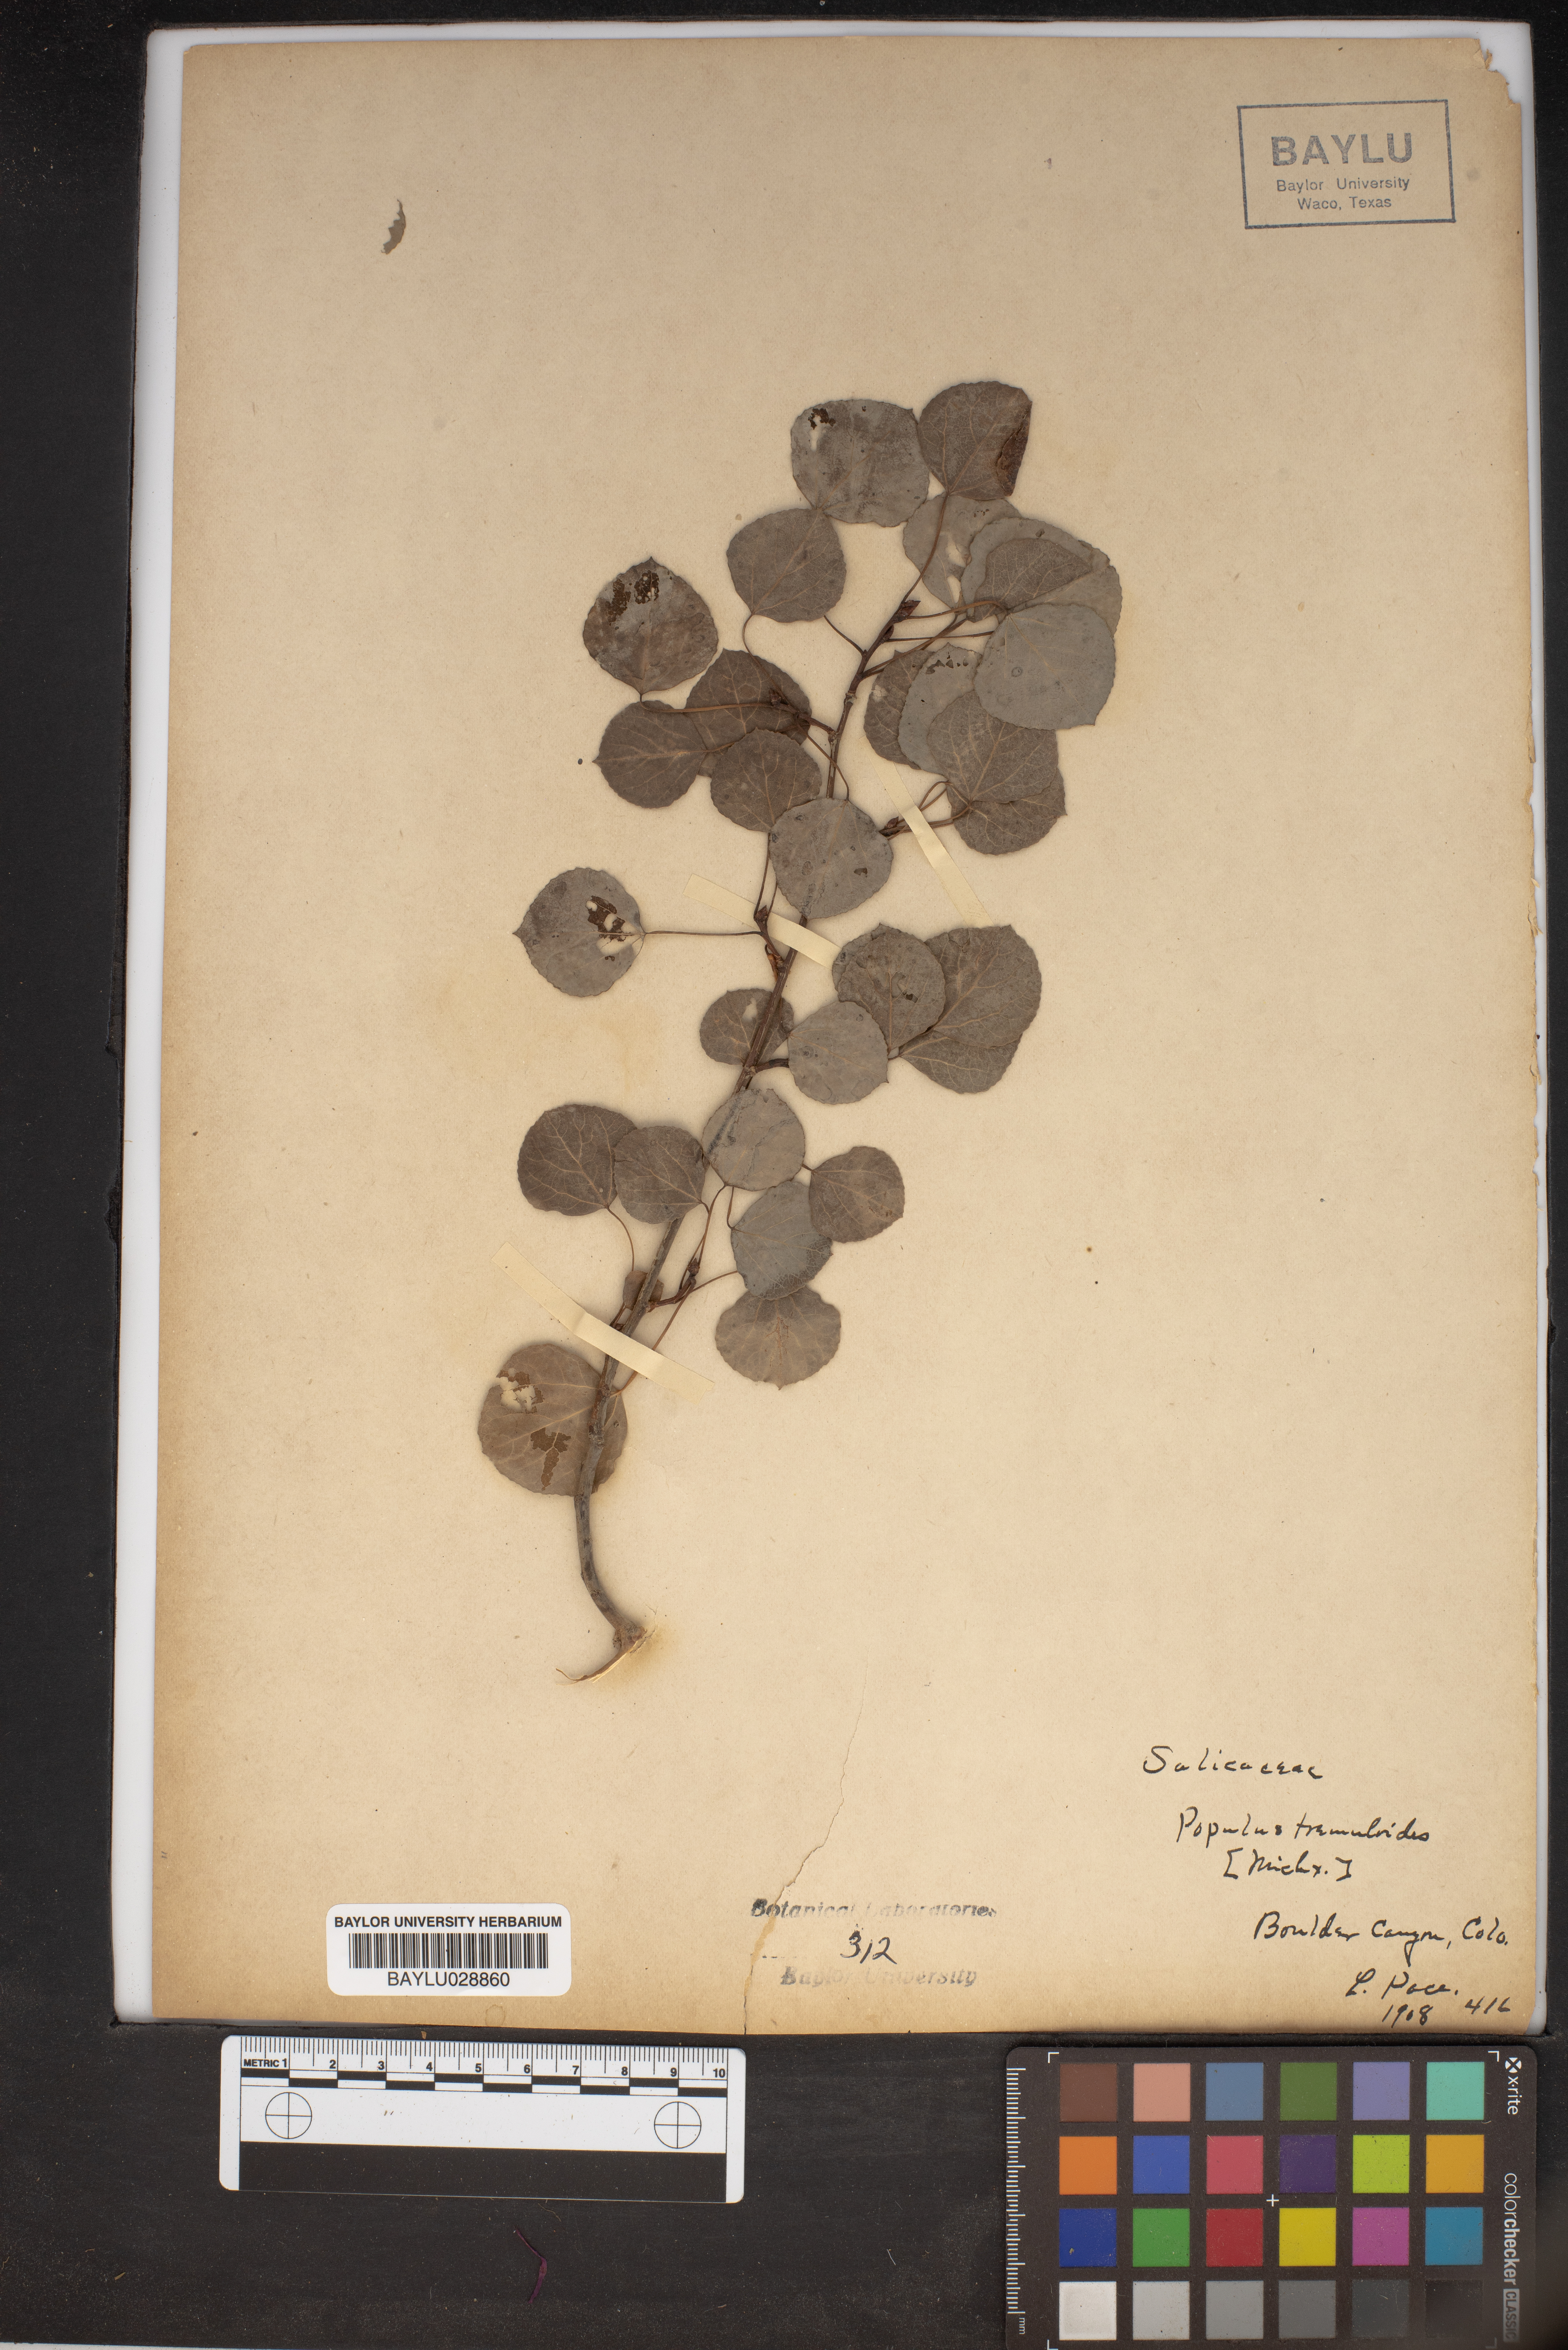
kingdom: Plantae
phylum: Tracheophyta
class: Magnoliopsida
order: Malpighiales
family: Salicaceae
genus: Populus
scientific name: Populus tremuloides
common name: Quaking aspen
